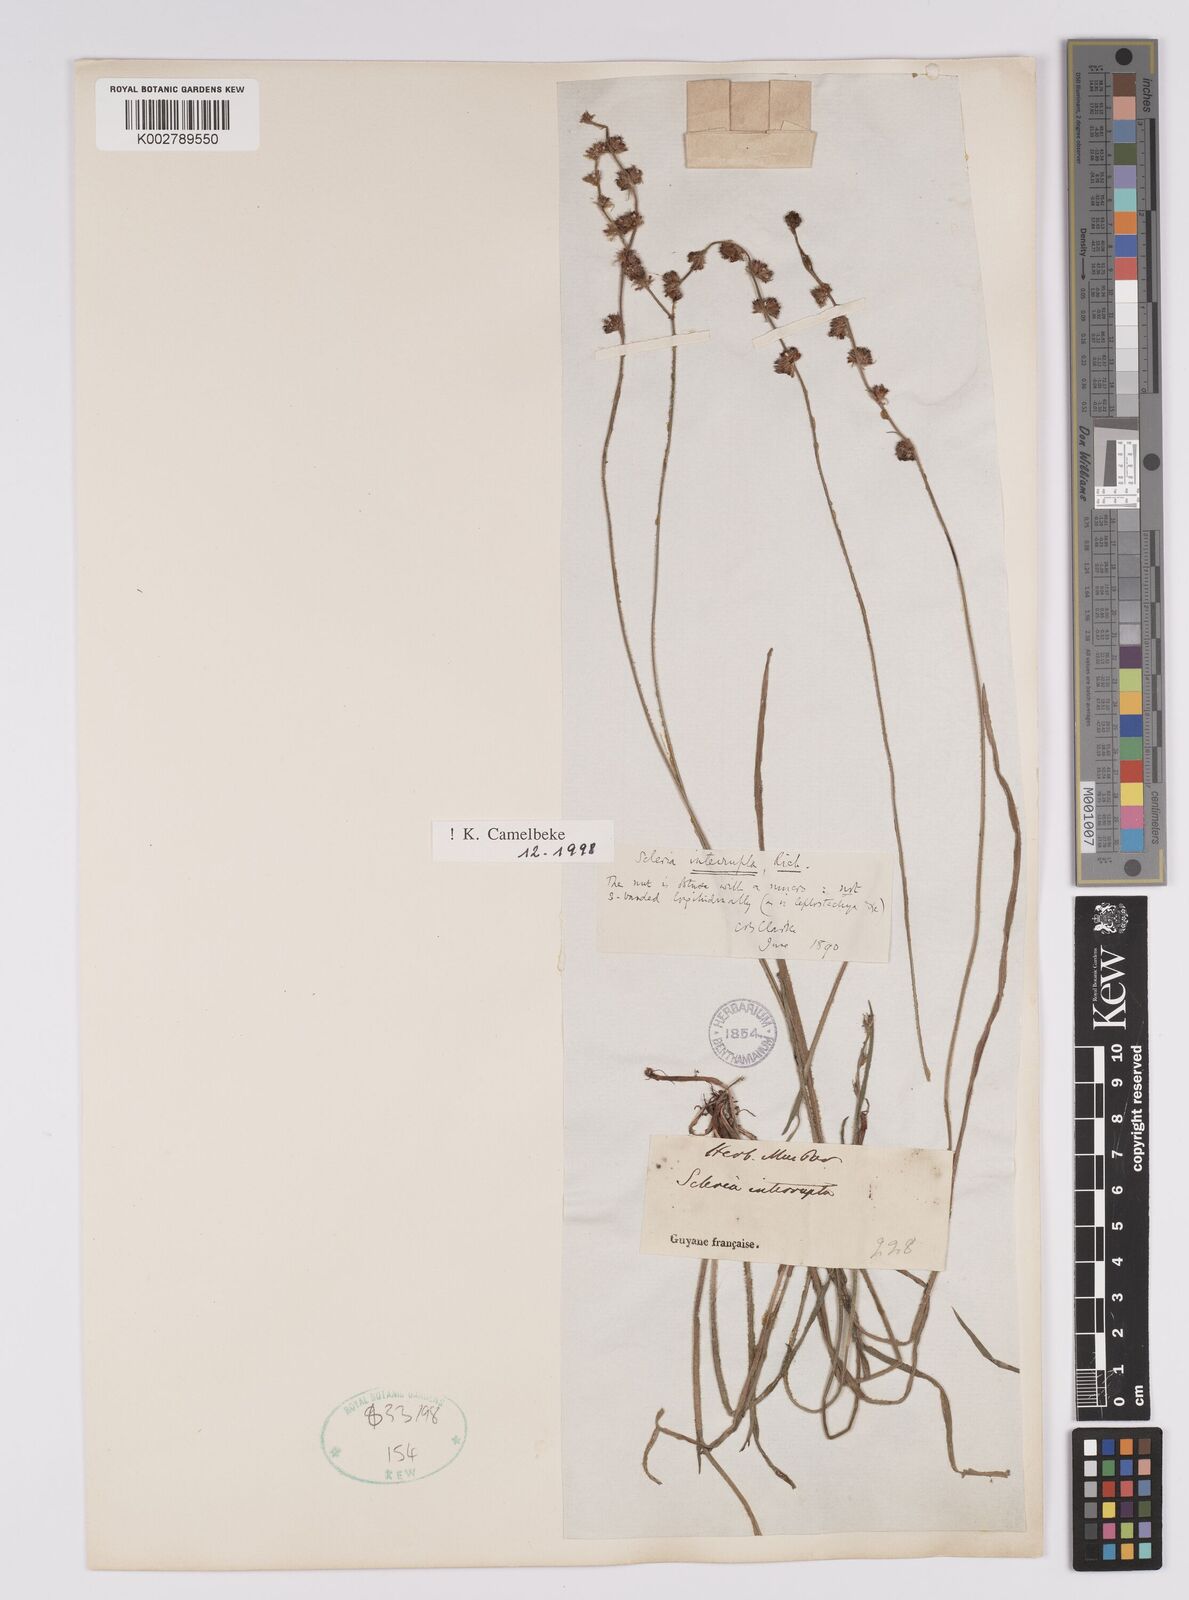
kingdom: Plantae
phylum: Tracheophyta
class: Liliopsida
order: Poales
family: Cyperaceae
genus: Scleria
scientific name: Scleria interrupta
